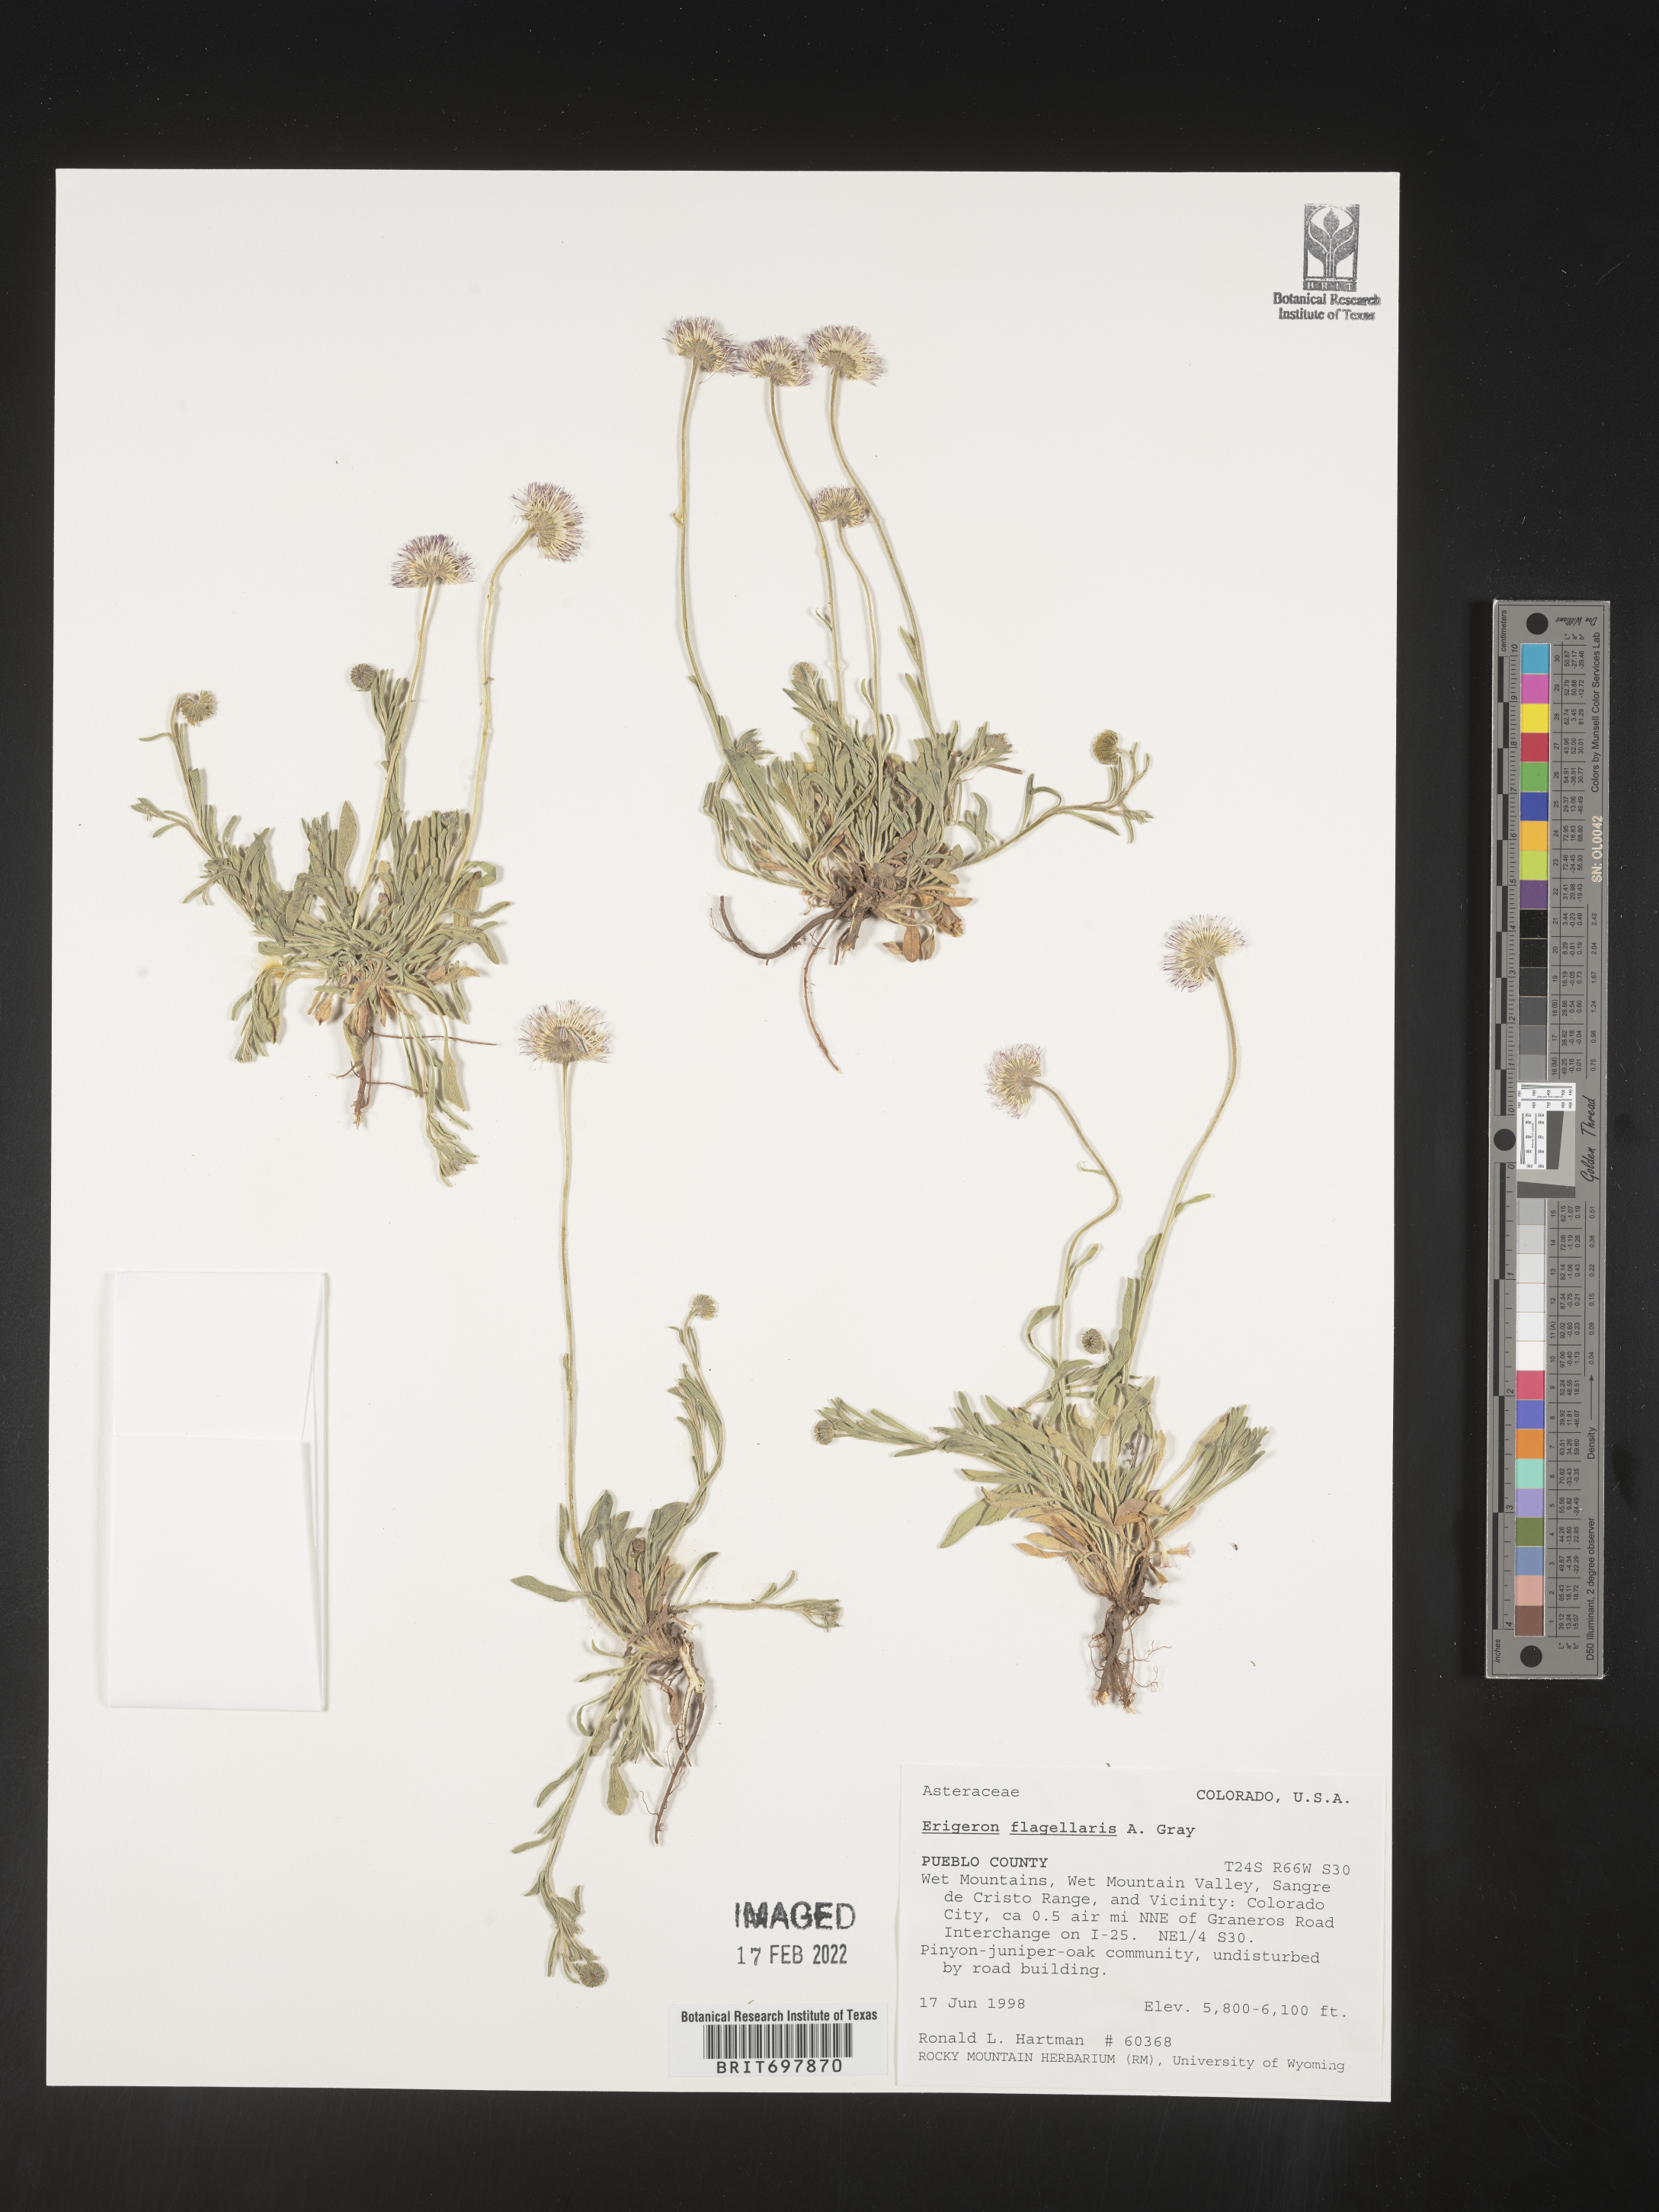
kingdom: Plantae
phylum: Tracheophyta
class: Magnoliopsida
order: Asterales
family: Asteraceae
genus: Erigeron
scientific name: Erigeron flagellaris
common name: Running fleabane
